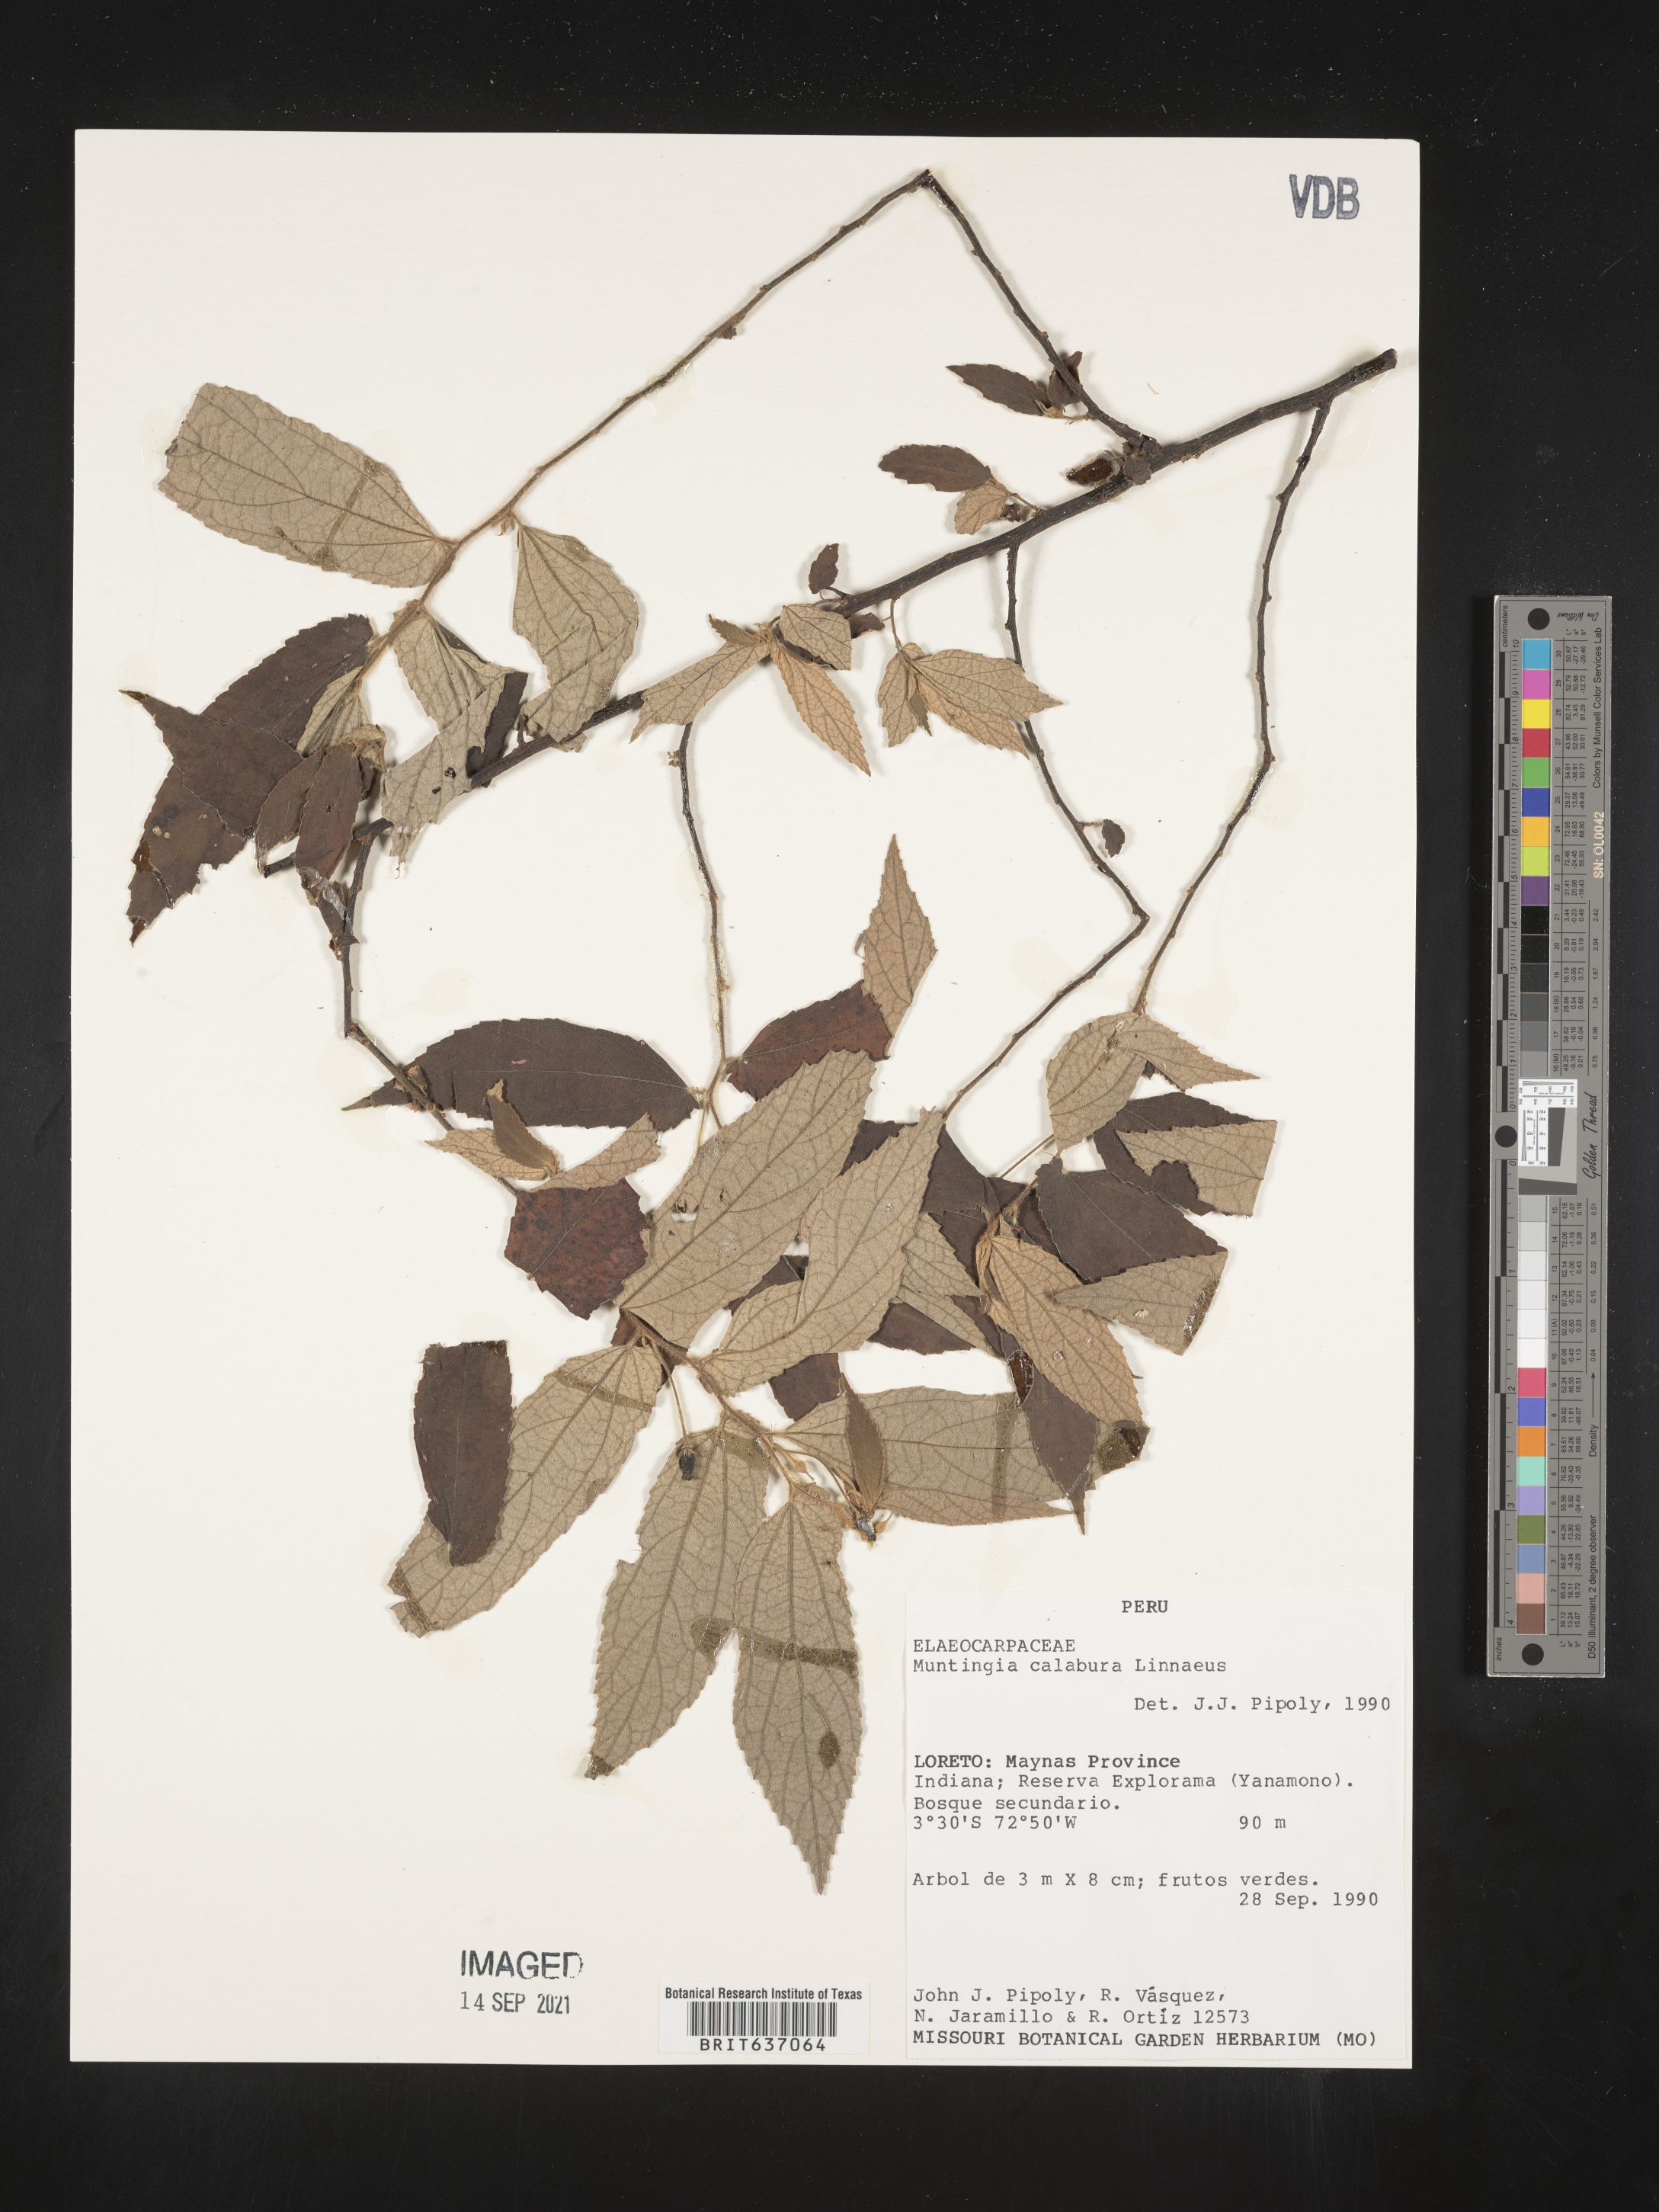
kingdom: Plantae
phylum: Tracheophyta
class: Magnoliopsida
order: Malvales
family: Muntingiaceae
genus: Muntingia
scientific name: Muntingia
